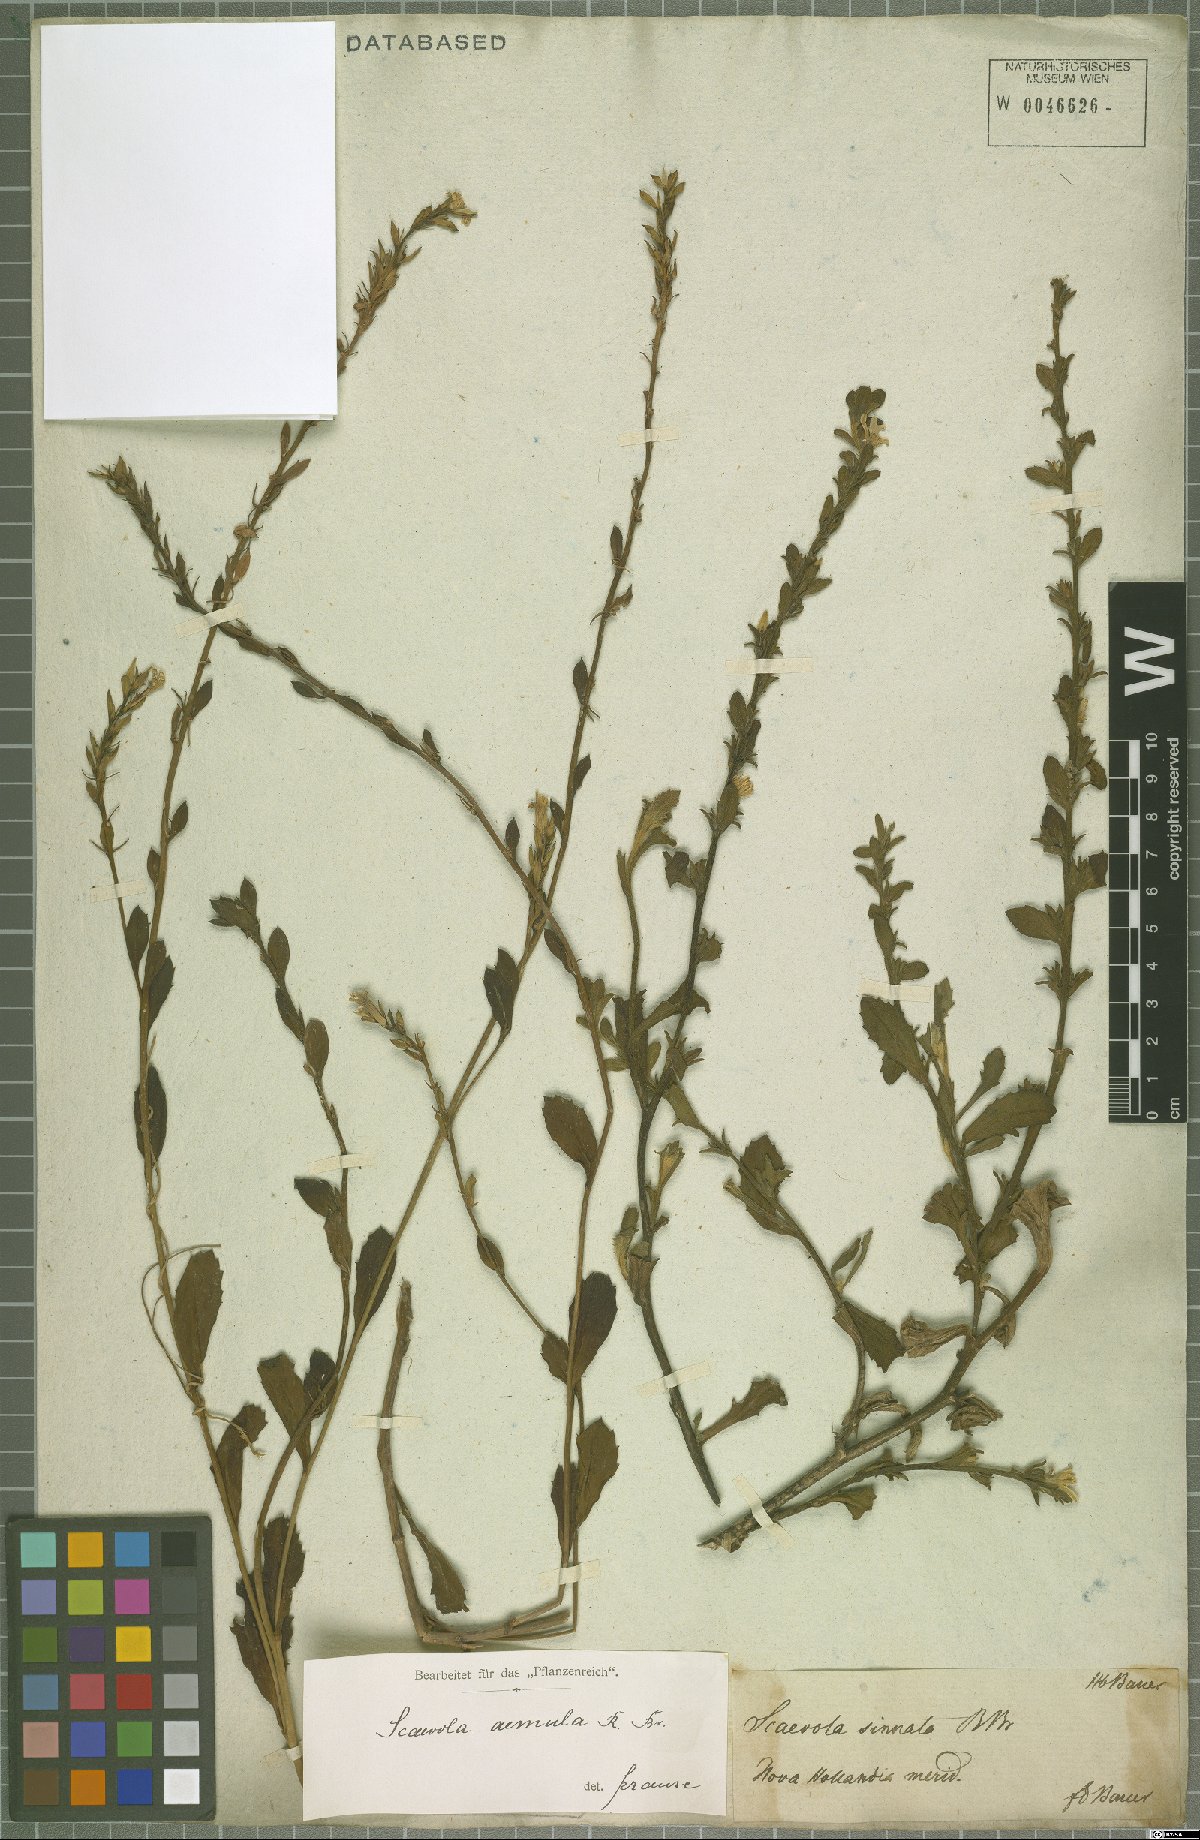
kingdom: Plantae
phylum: Tracheophyta
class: Magnoliopsida
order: Asterales
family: Goodeniaceae
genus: Scaevola
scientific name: Scaevola aemula
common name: Common fanflower
